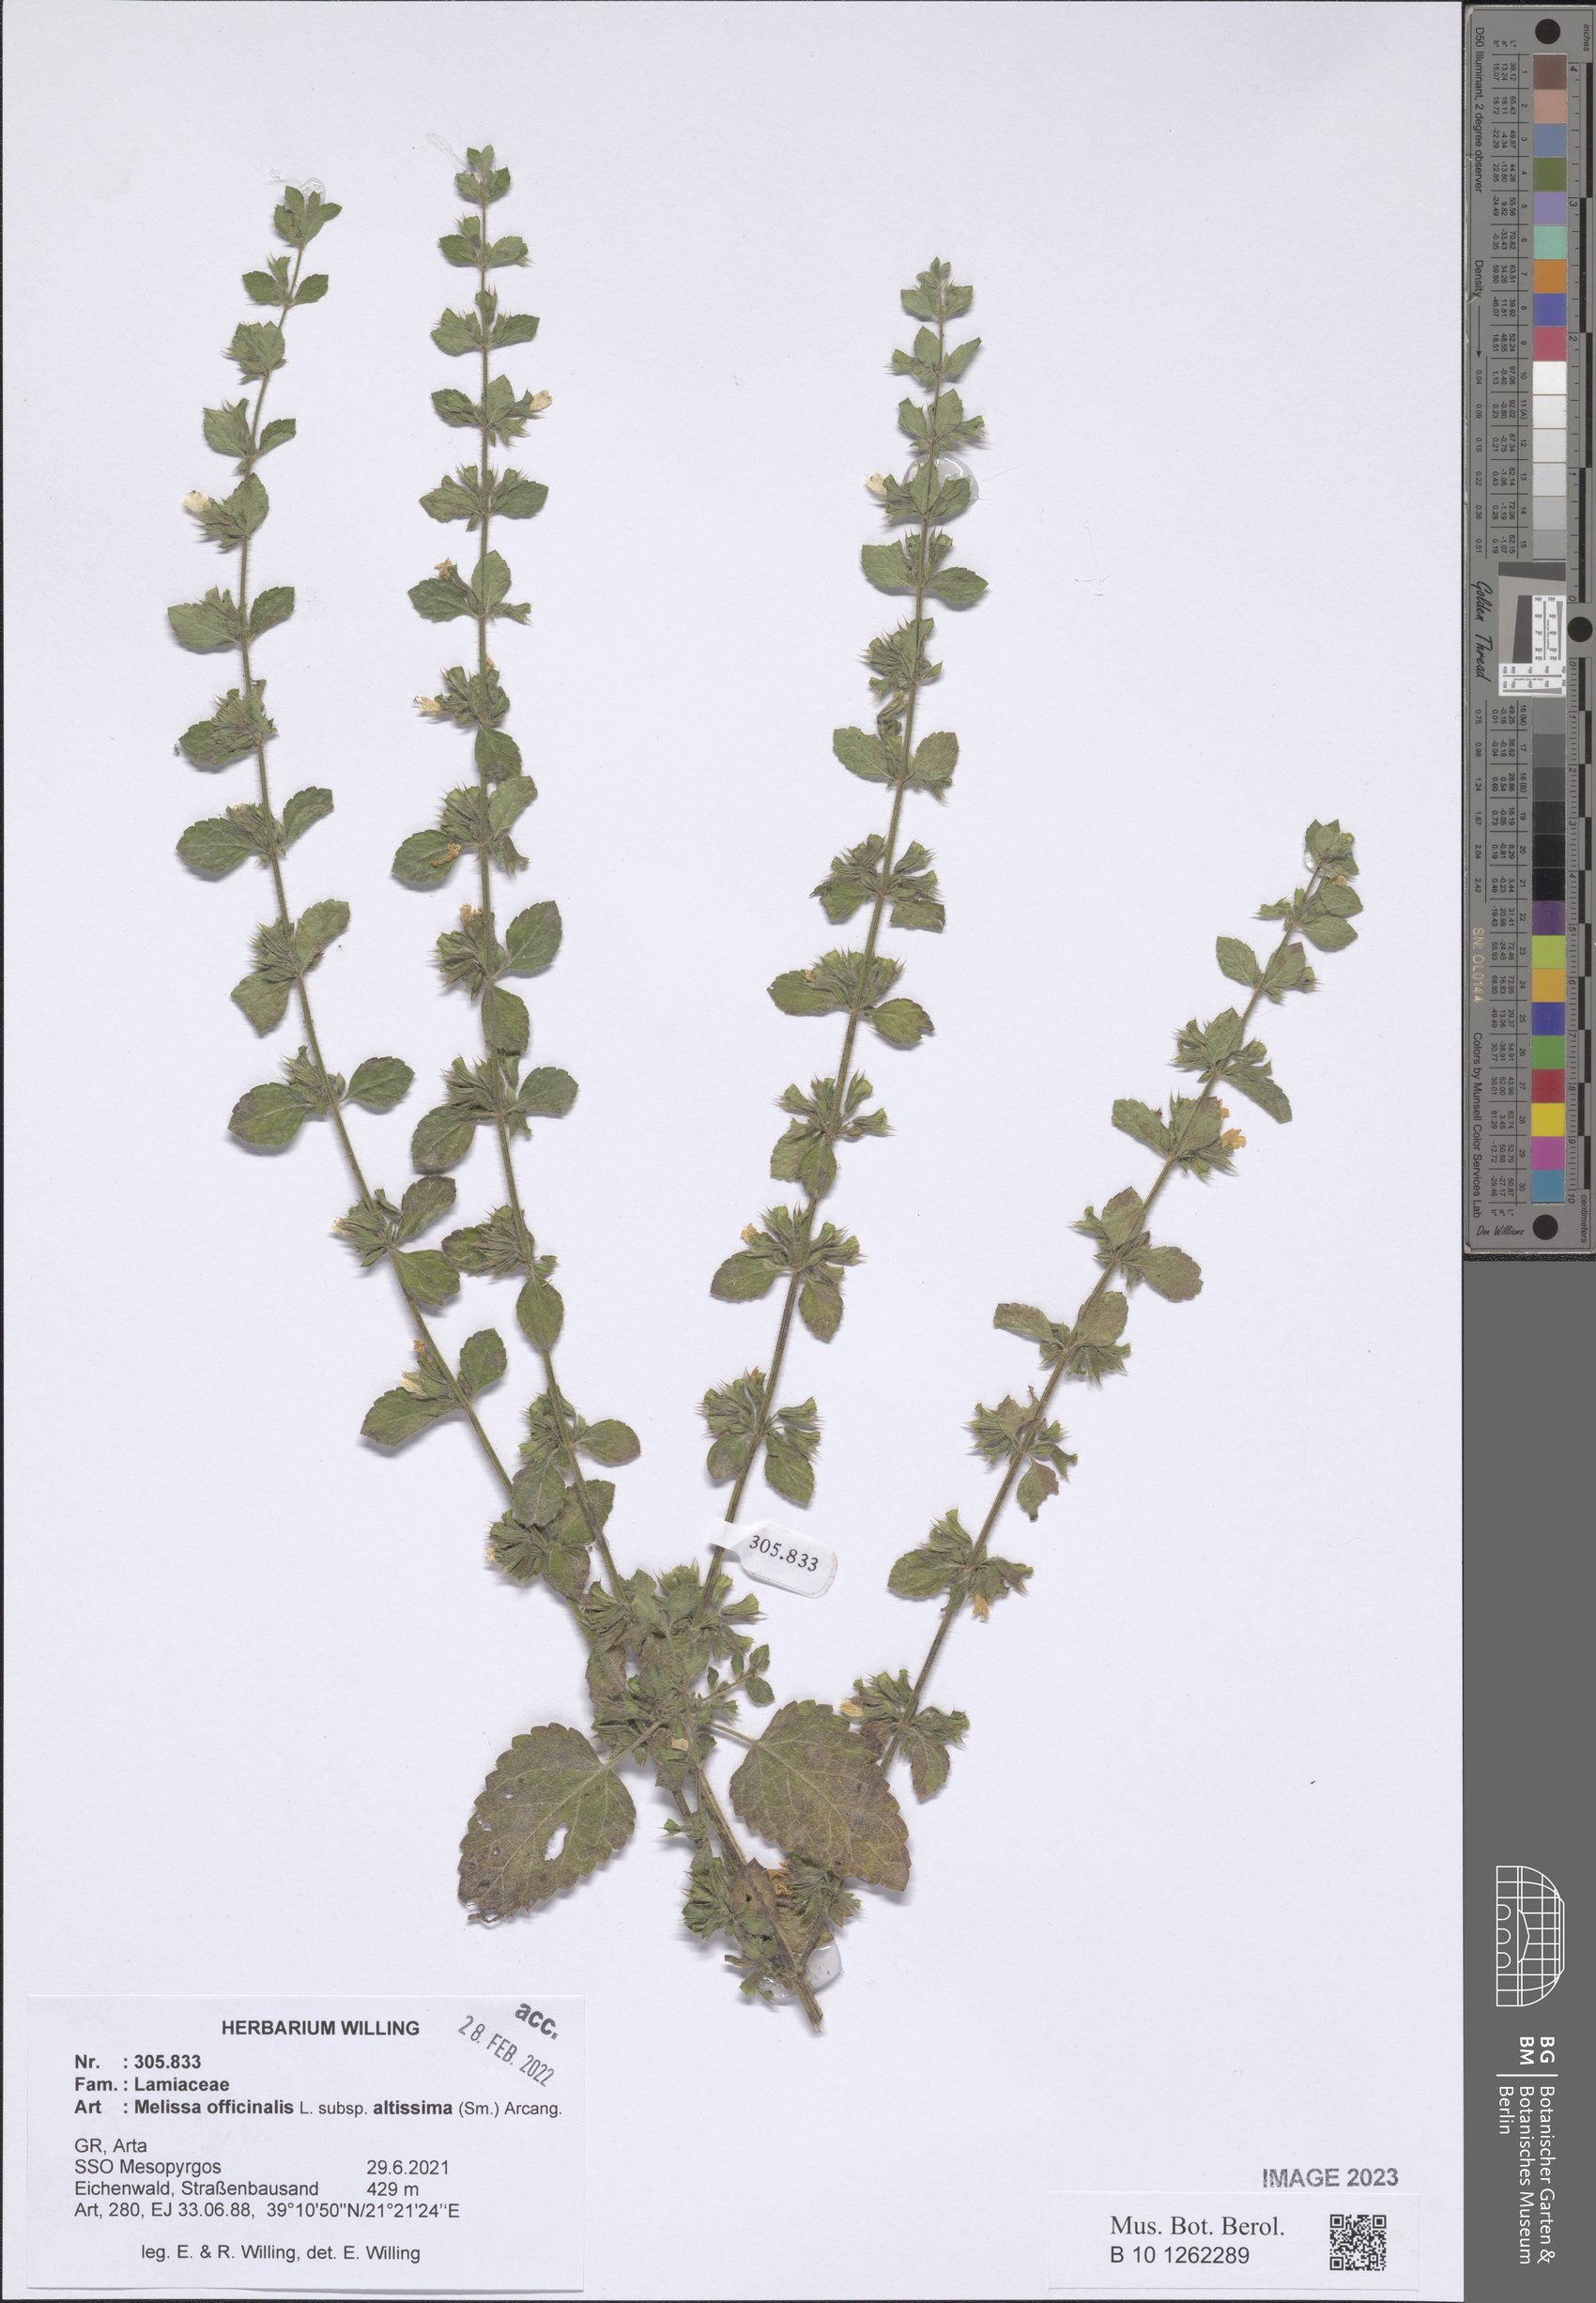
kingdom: Plantae
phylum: Tracheophyta
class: Magnoliopsida
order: Lamiales
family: Lamiaceae
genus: Melissa
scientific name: Melissa officinalis
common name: Balm
